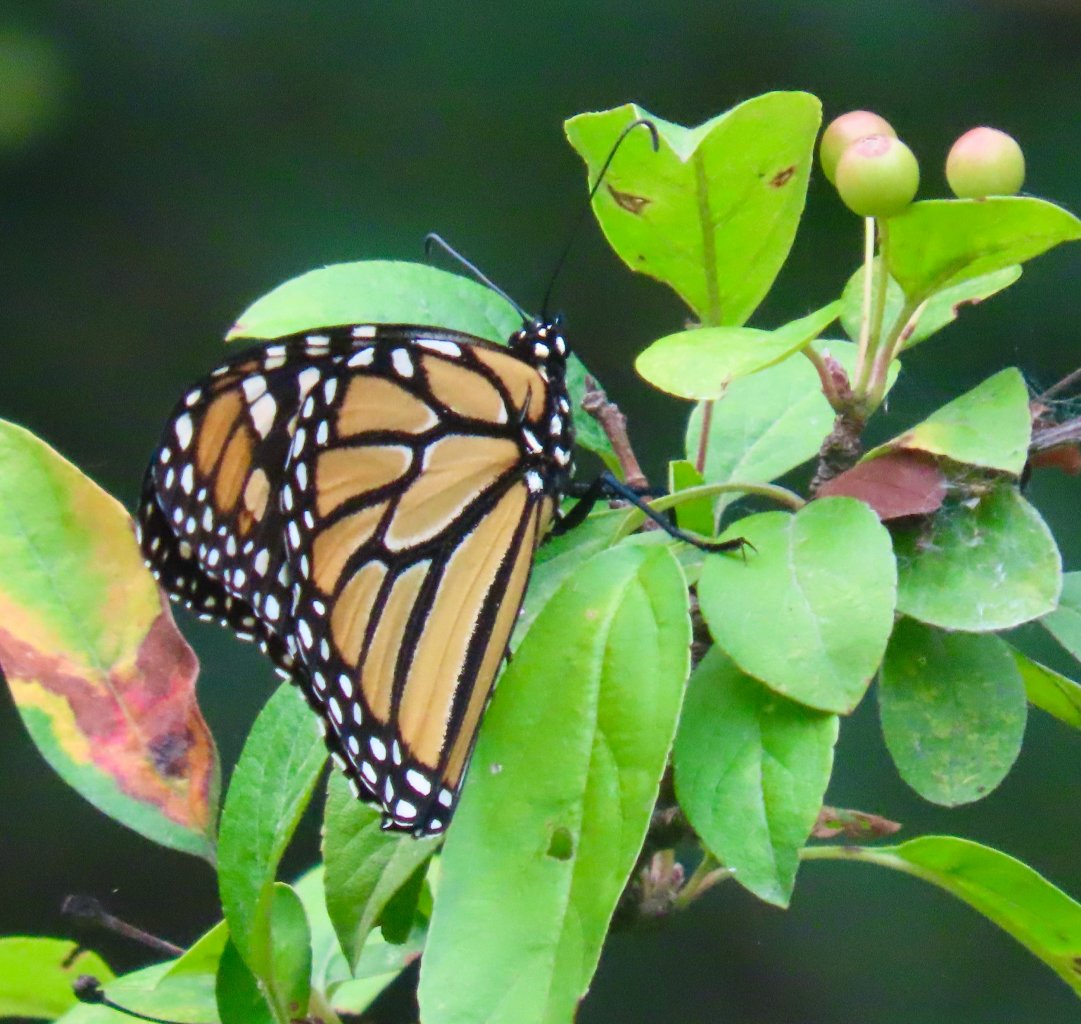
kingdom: Animalia
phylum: Arthropoda
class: Insecta
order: Lepidoptera
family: Nymphalidae
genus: Danaus
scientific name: Danaus plexippus
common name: Monarch
